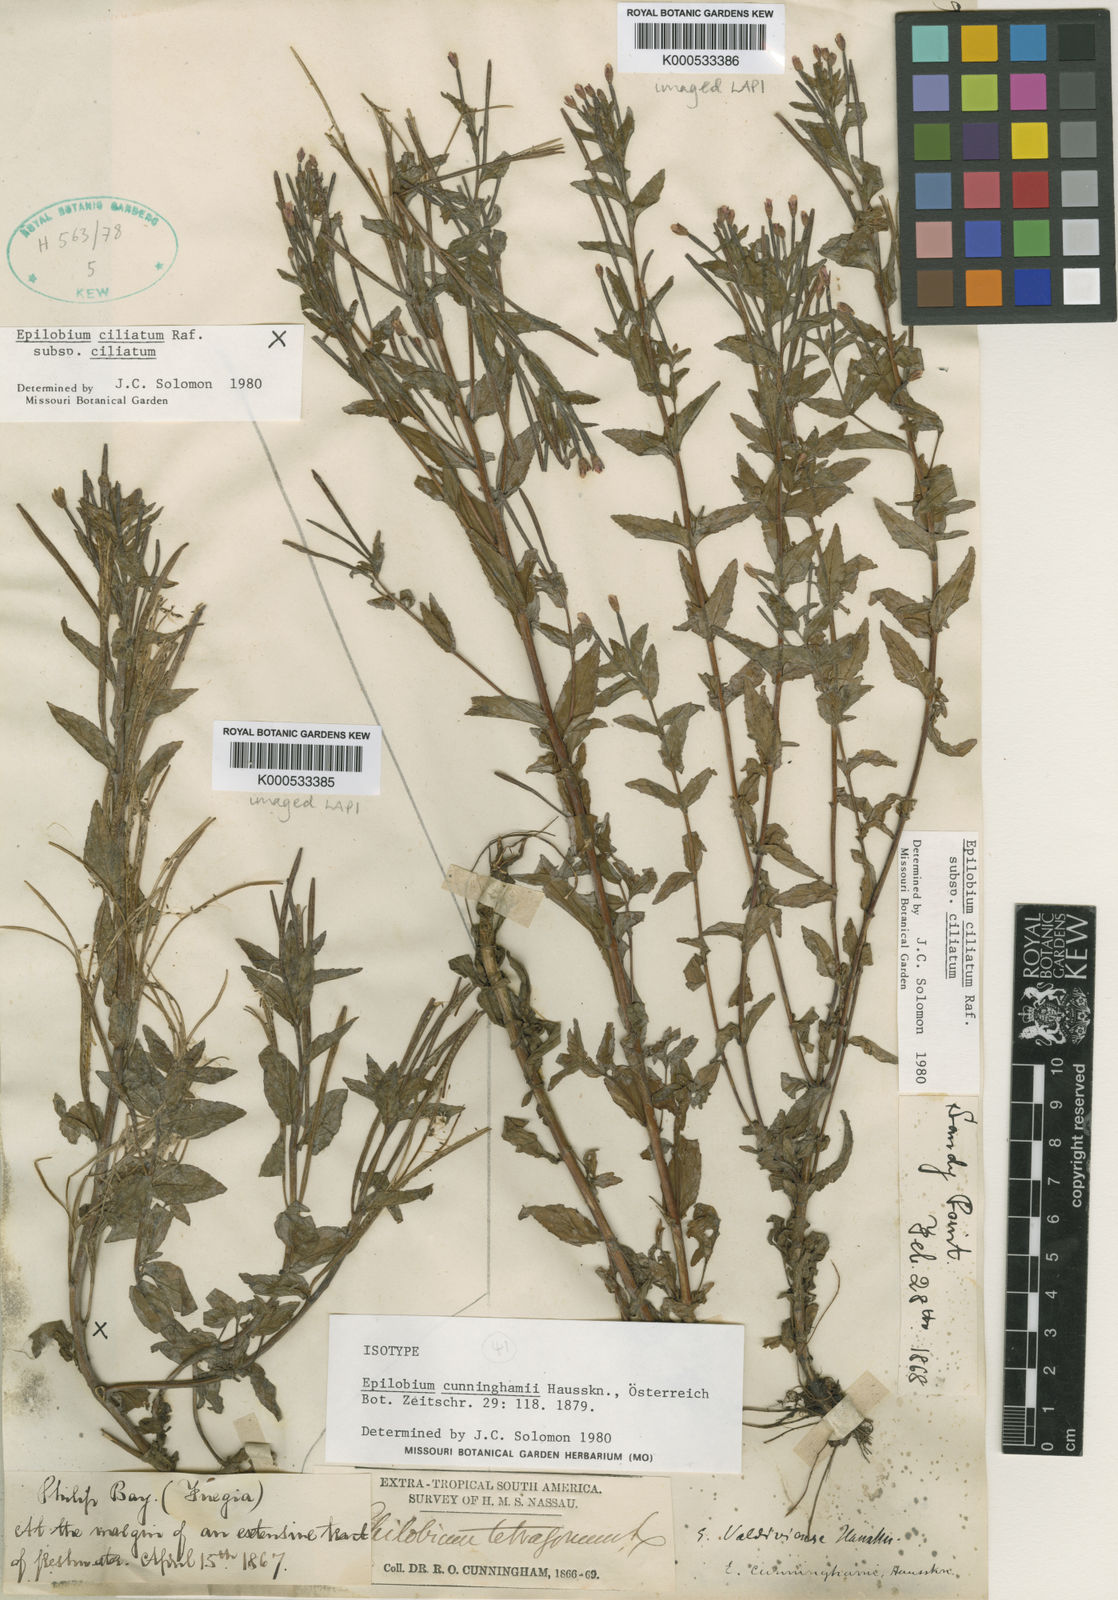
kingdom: Plantae
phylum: Tracheophyta
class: Magnoliopsida
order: Myrtales
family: Onagraceae
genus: Epilobium
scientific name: Epilobium ciliatum
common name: American willowherb
